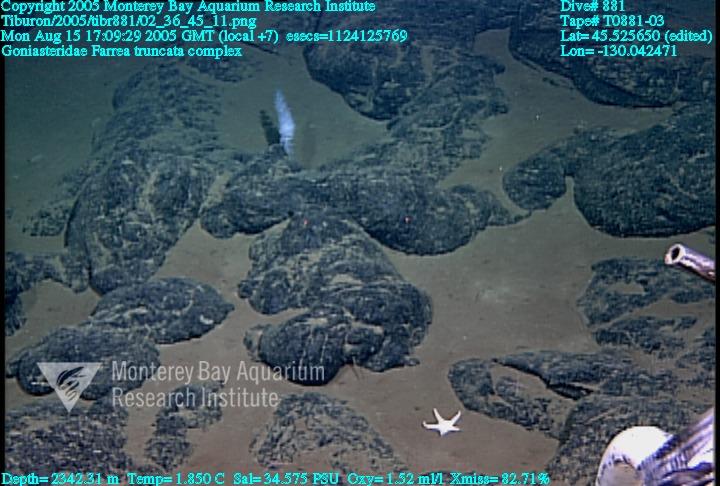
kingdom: Animalia
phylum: Porifera
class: Hexactinellida
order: Sceptrulophora
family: Farreidae
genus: Farrea
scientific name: Farrea truncata
